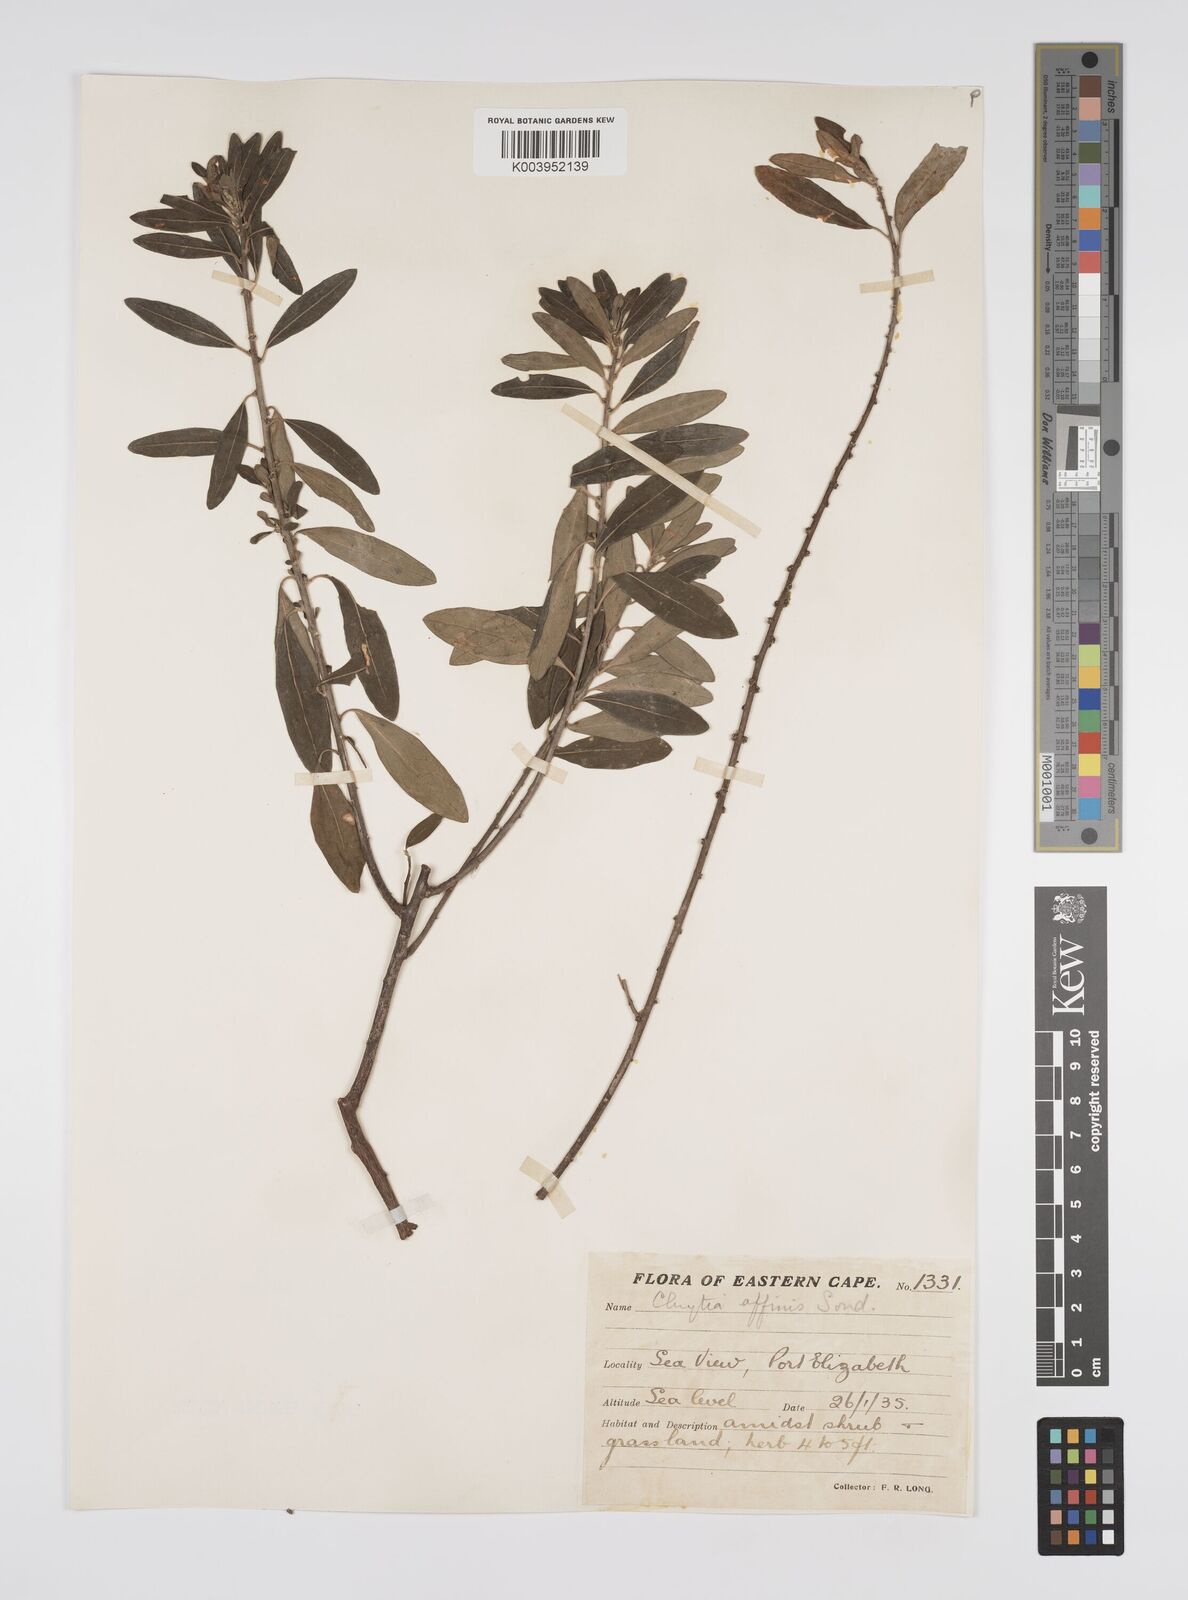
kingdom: Plantae
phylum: Tracheophyta
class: Magnoliopsida
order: Malpighiales
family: Peraceae
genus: Clutia
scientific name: Clutia affinis
